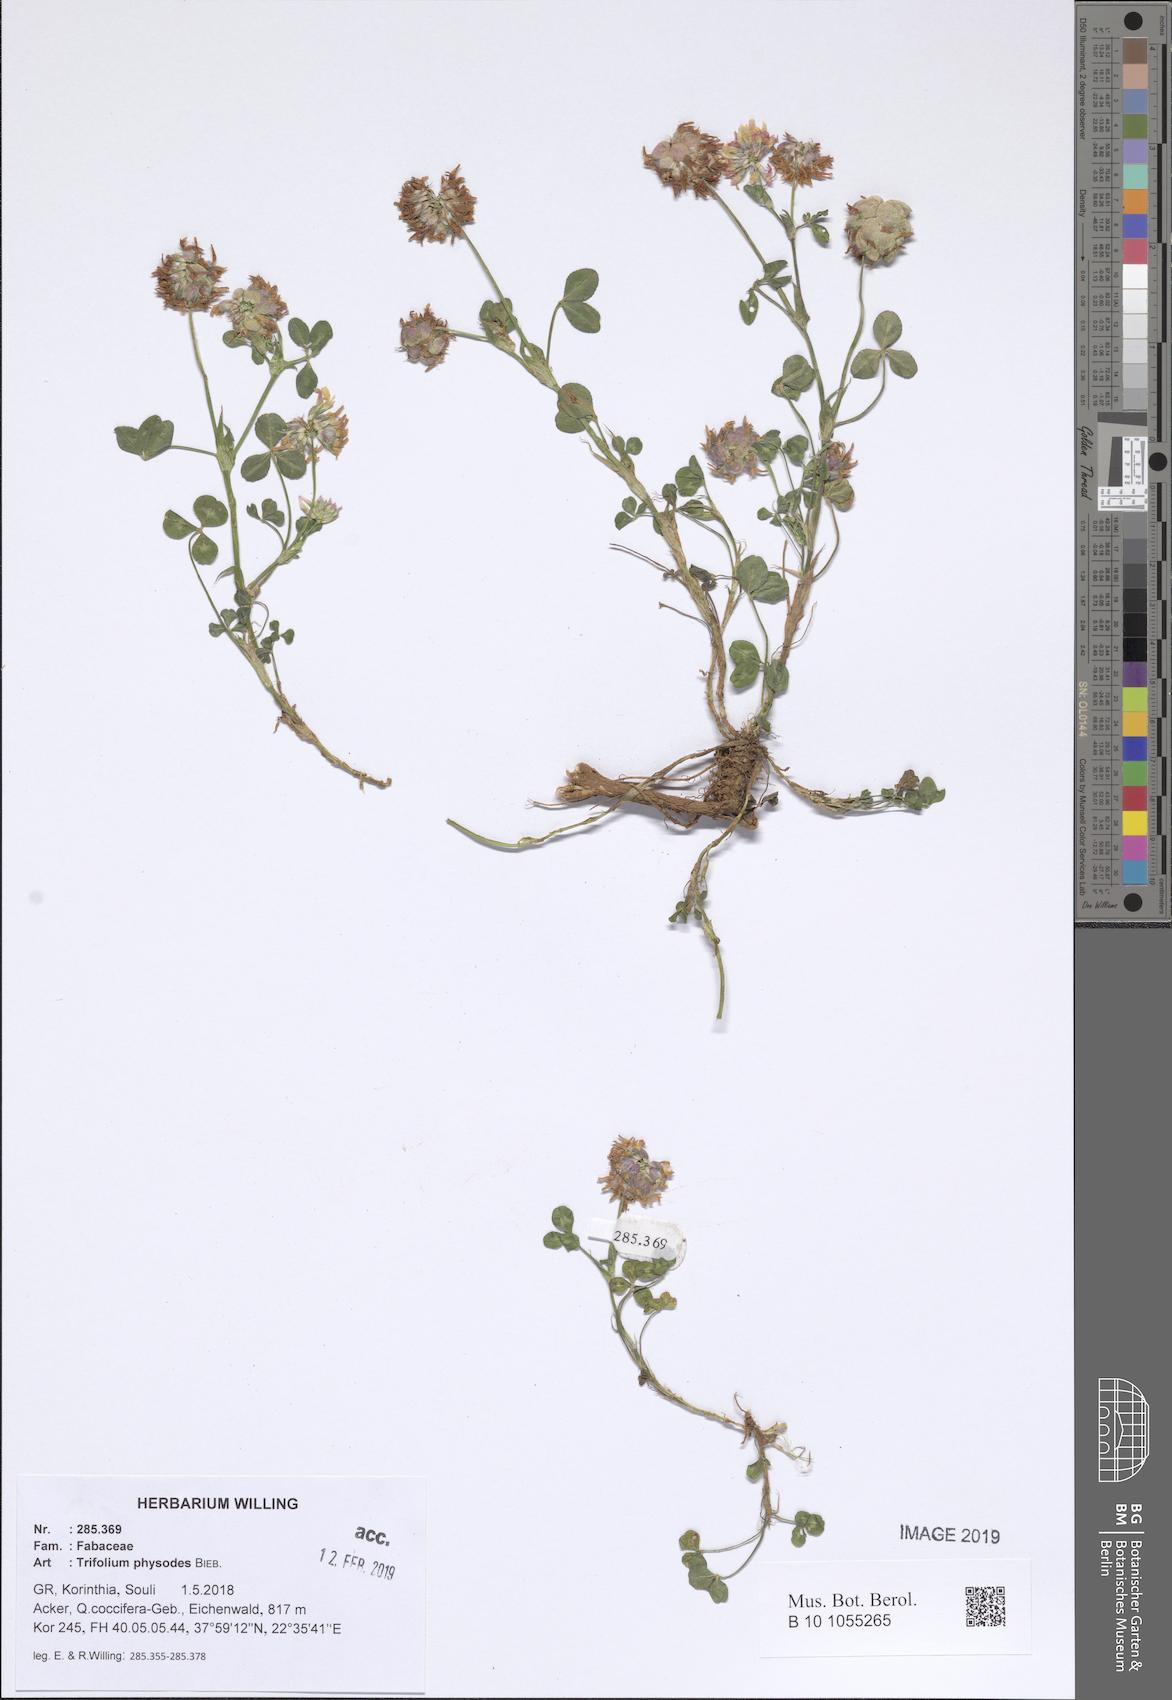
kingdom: Plantae
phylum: Tracheophyta
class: Magnoliopsida
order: Fabales
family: Fabaceae
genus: Trifolium
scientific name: Trifolium physodes
